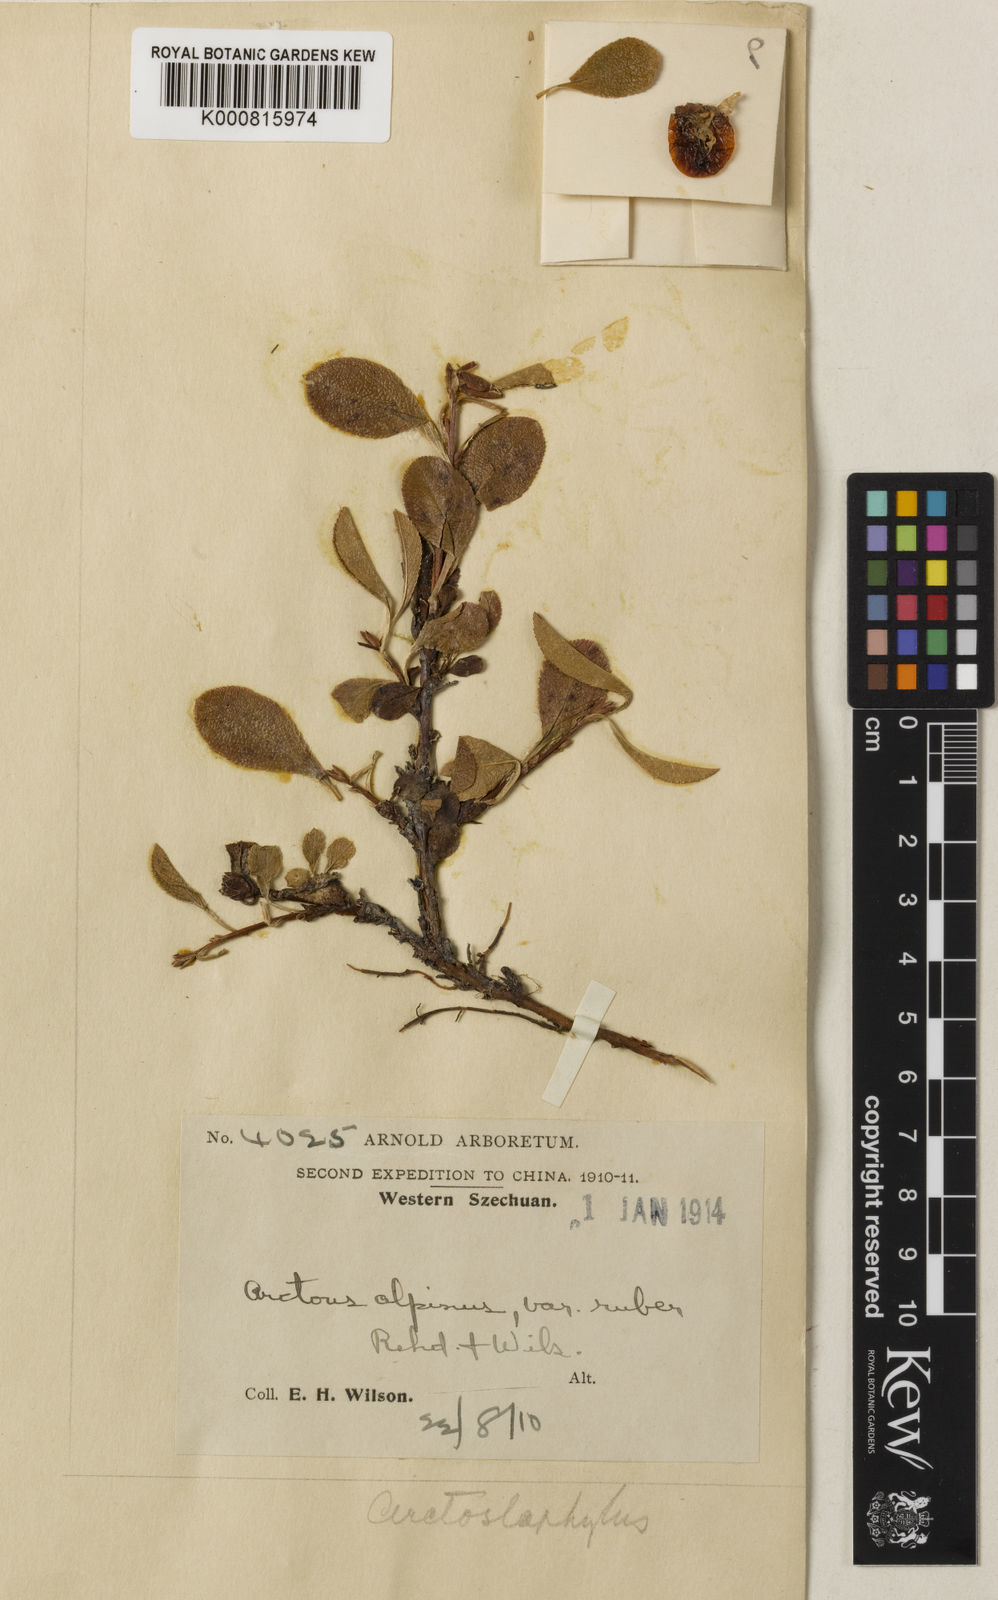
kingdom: Plantae
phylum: Tracheophyta
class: Magnoliopsida
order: Ericales
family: Ericaceae
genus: Arctous
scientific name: Arctous
